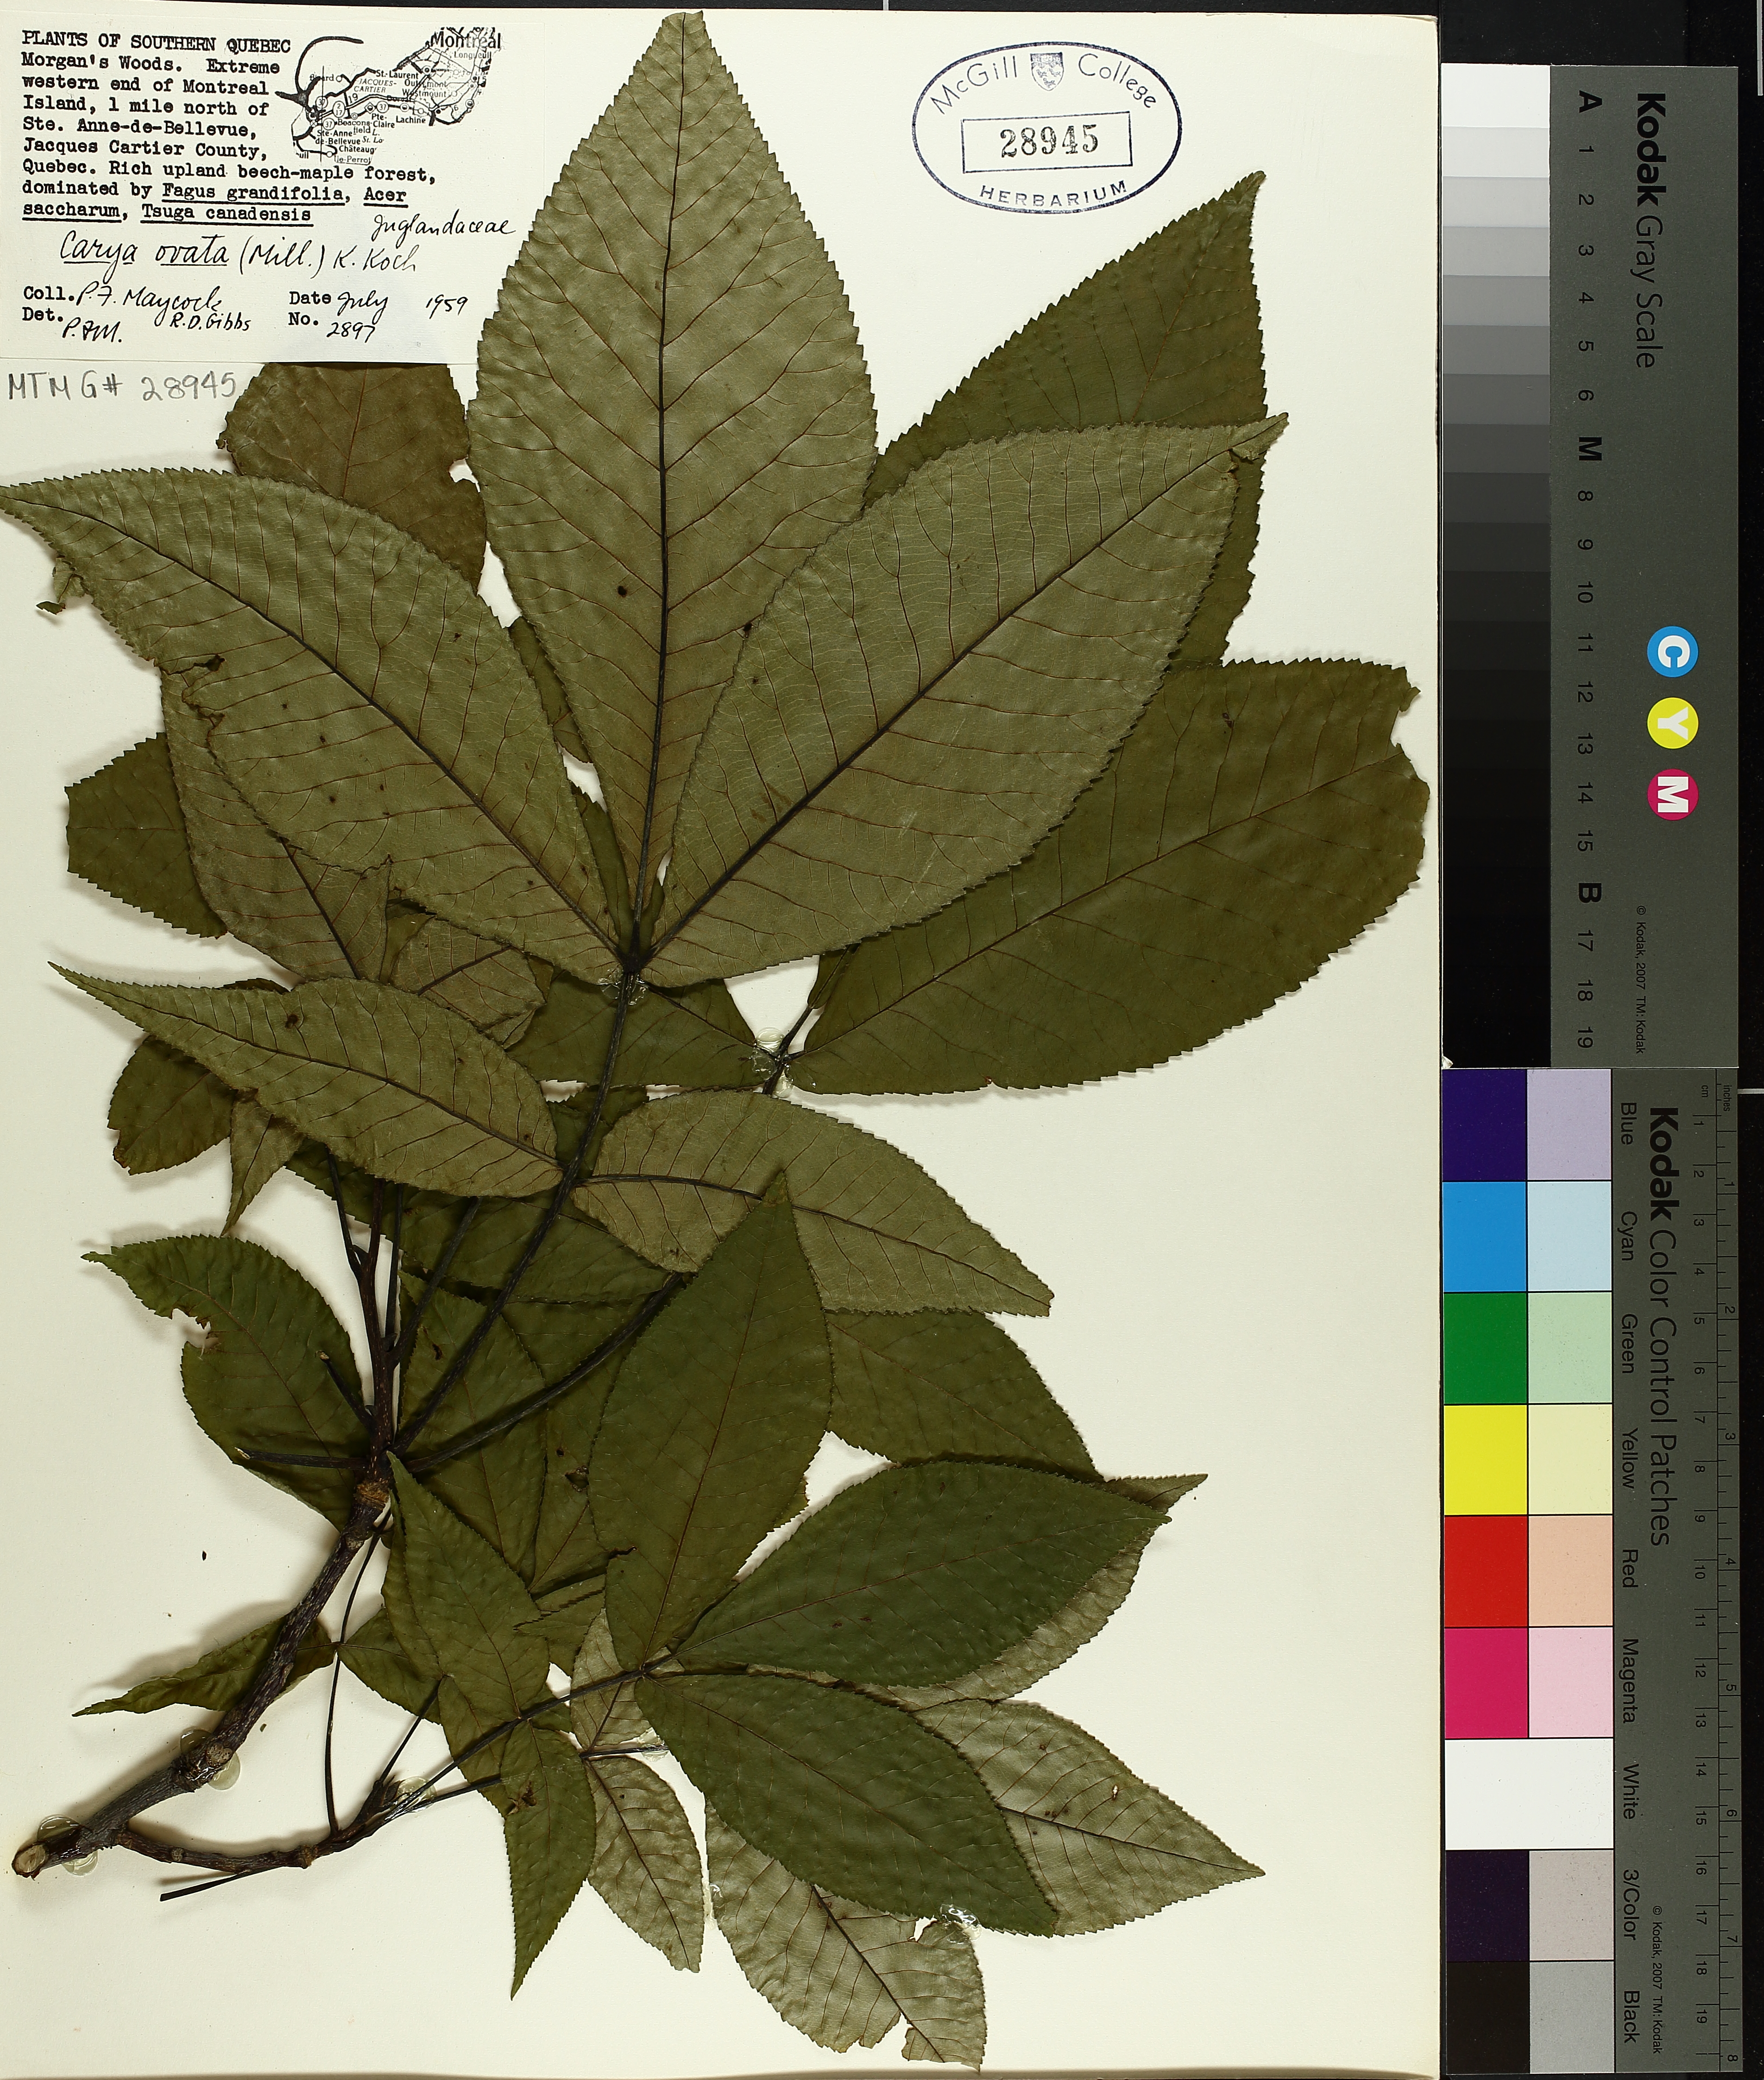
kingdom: Plantae
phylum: Tracheophyta
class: Magnoliopsida
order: Fagales
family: Juglandaceae
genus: Carya
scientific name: Carya ovata
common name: Shagbark hickory
